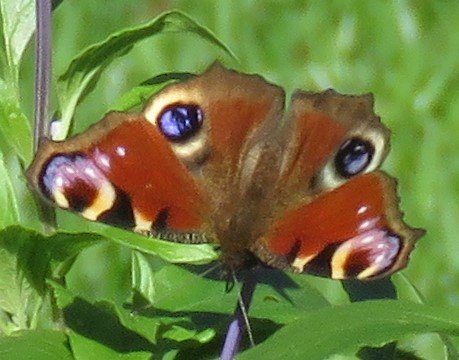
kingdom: Animalia
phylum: Arthropoda
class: Insecta
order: Lepidoptera
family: Nymphalidae
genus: Aglais
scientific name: Aglais io
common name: European Peacock
